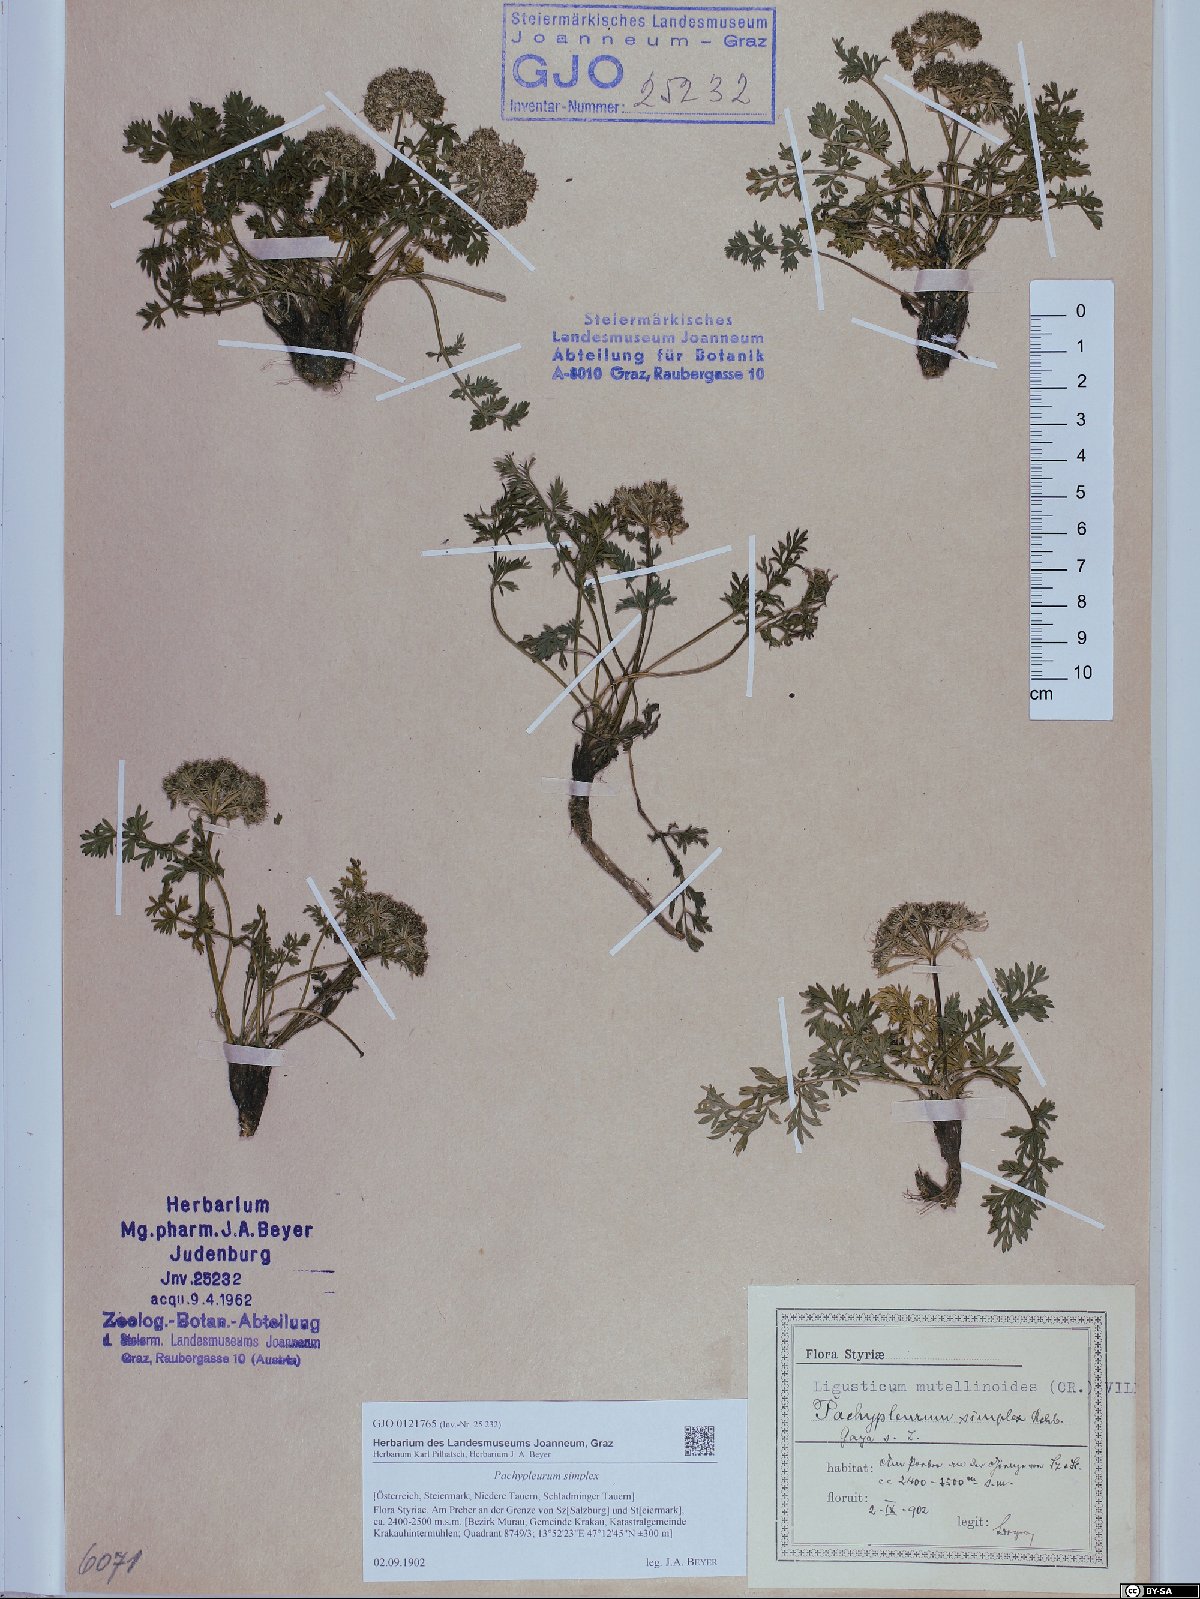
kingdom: Plantae
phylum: Tracheophyta
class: Magnoliopsida
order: Apiales
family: Apiaceae
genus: Pachypleurum
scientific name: Pachypleurum mutellinoides
